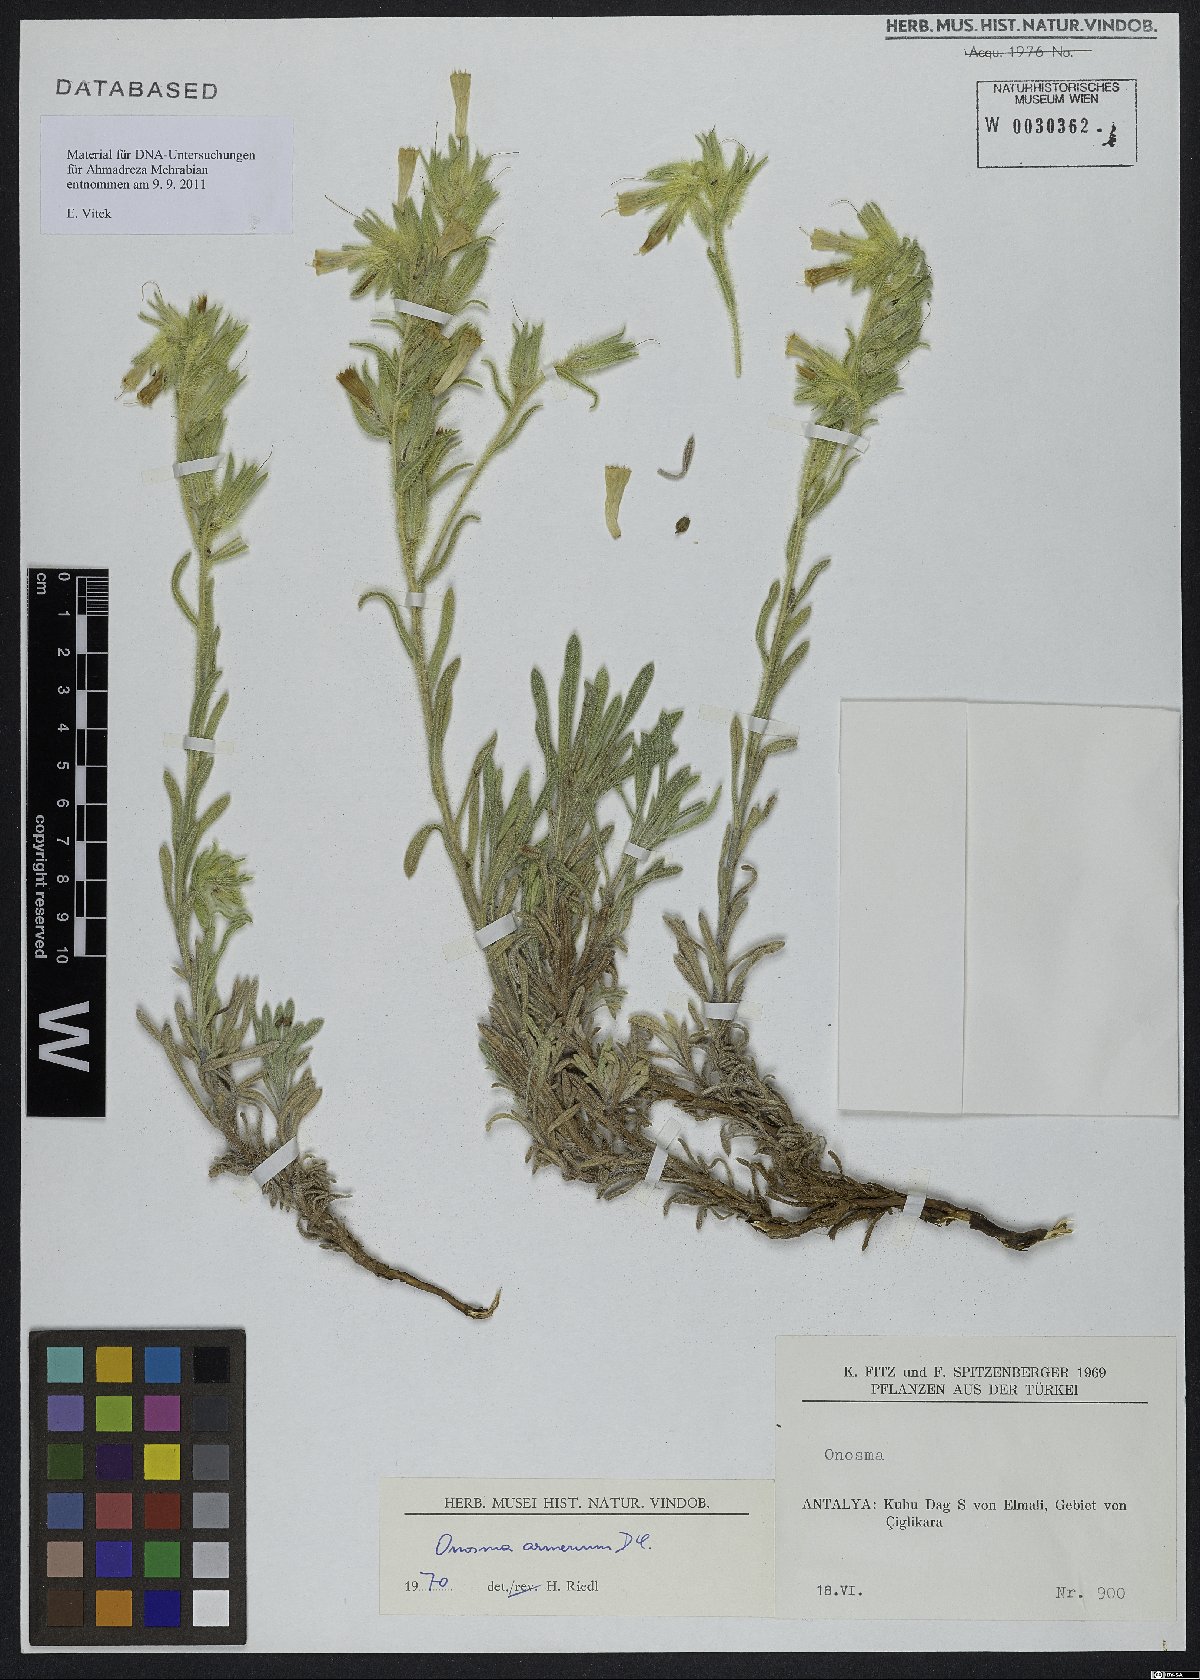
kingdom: Plantae
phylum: Tracheophyta
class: Magnoliopsida
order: Boraginales
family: Boraginaceae
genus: Onosma
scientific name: Onosma armena
